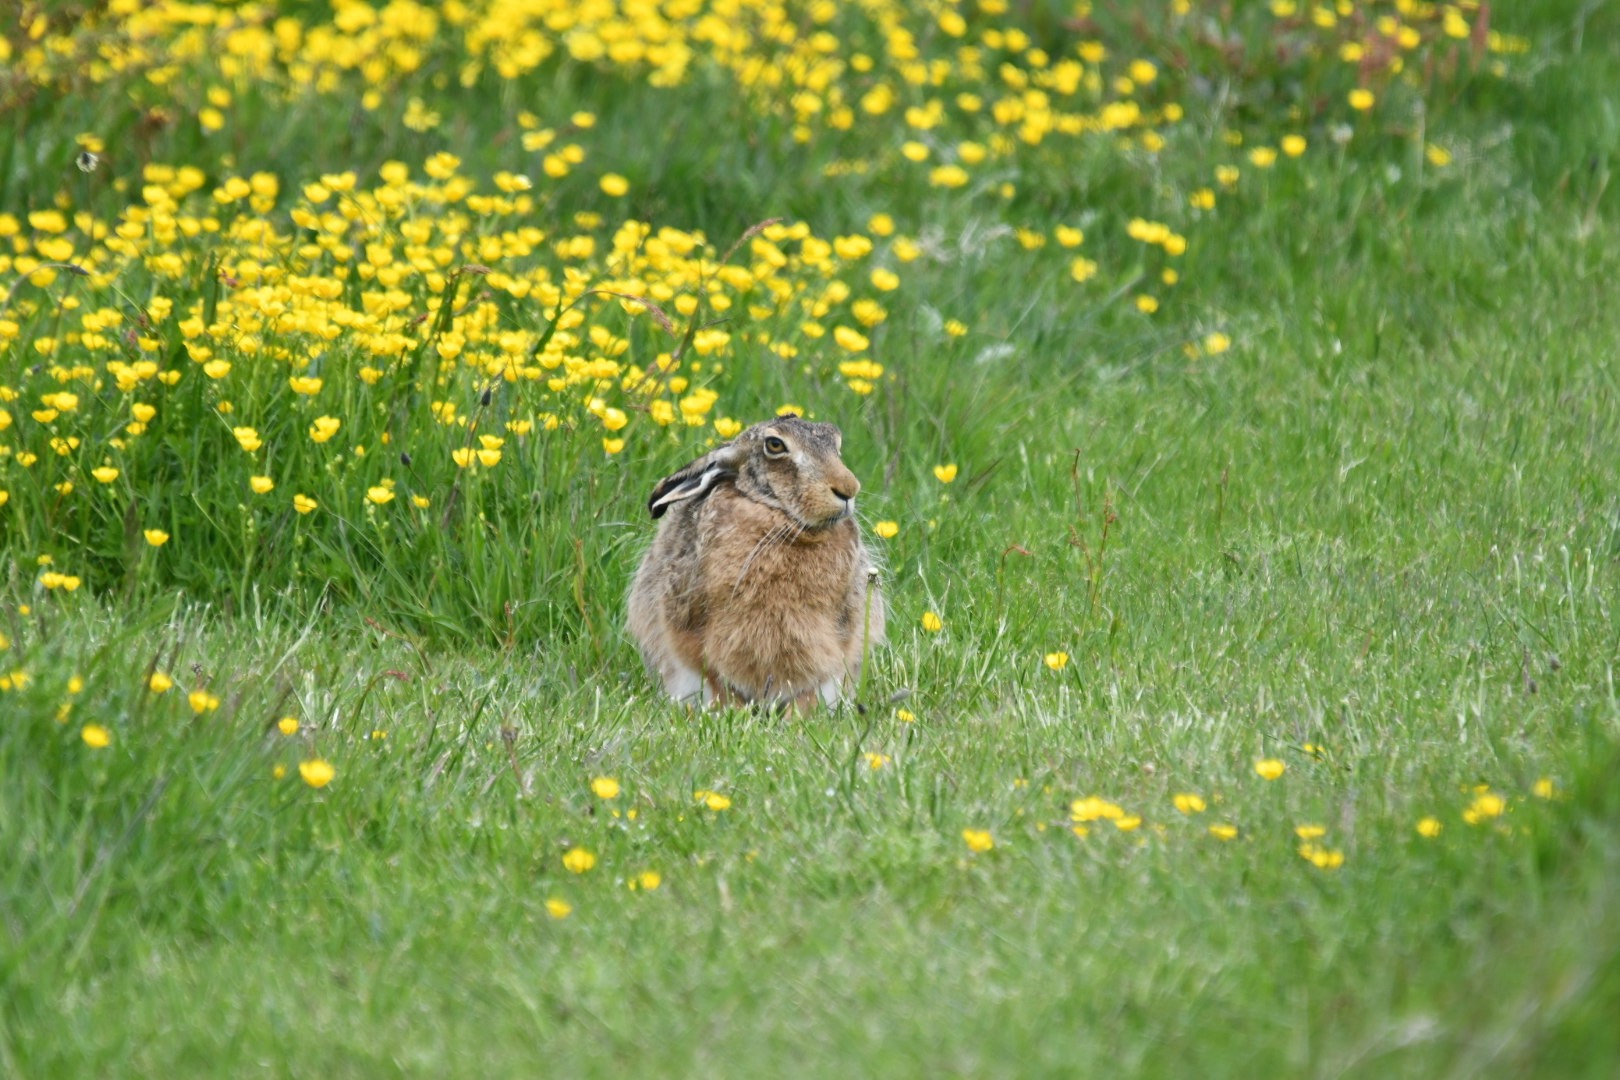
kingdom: Animalia
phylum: Chordata
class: Mammalia
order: Lagomorpha
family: Leporidae
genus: Lepus
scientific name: Lepus europaeus
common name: Hare
